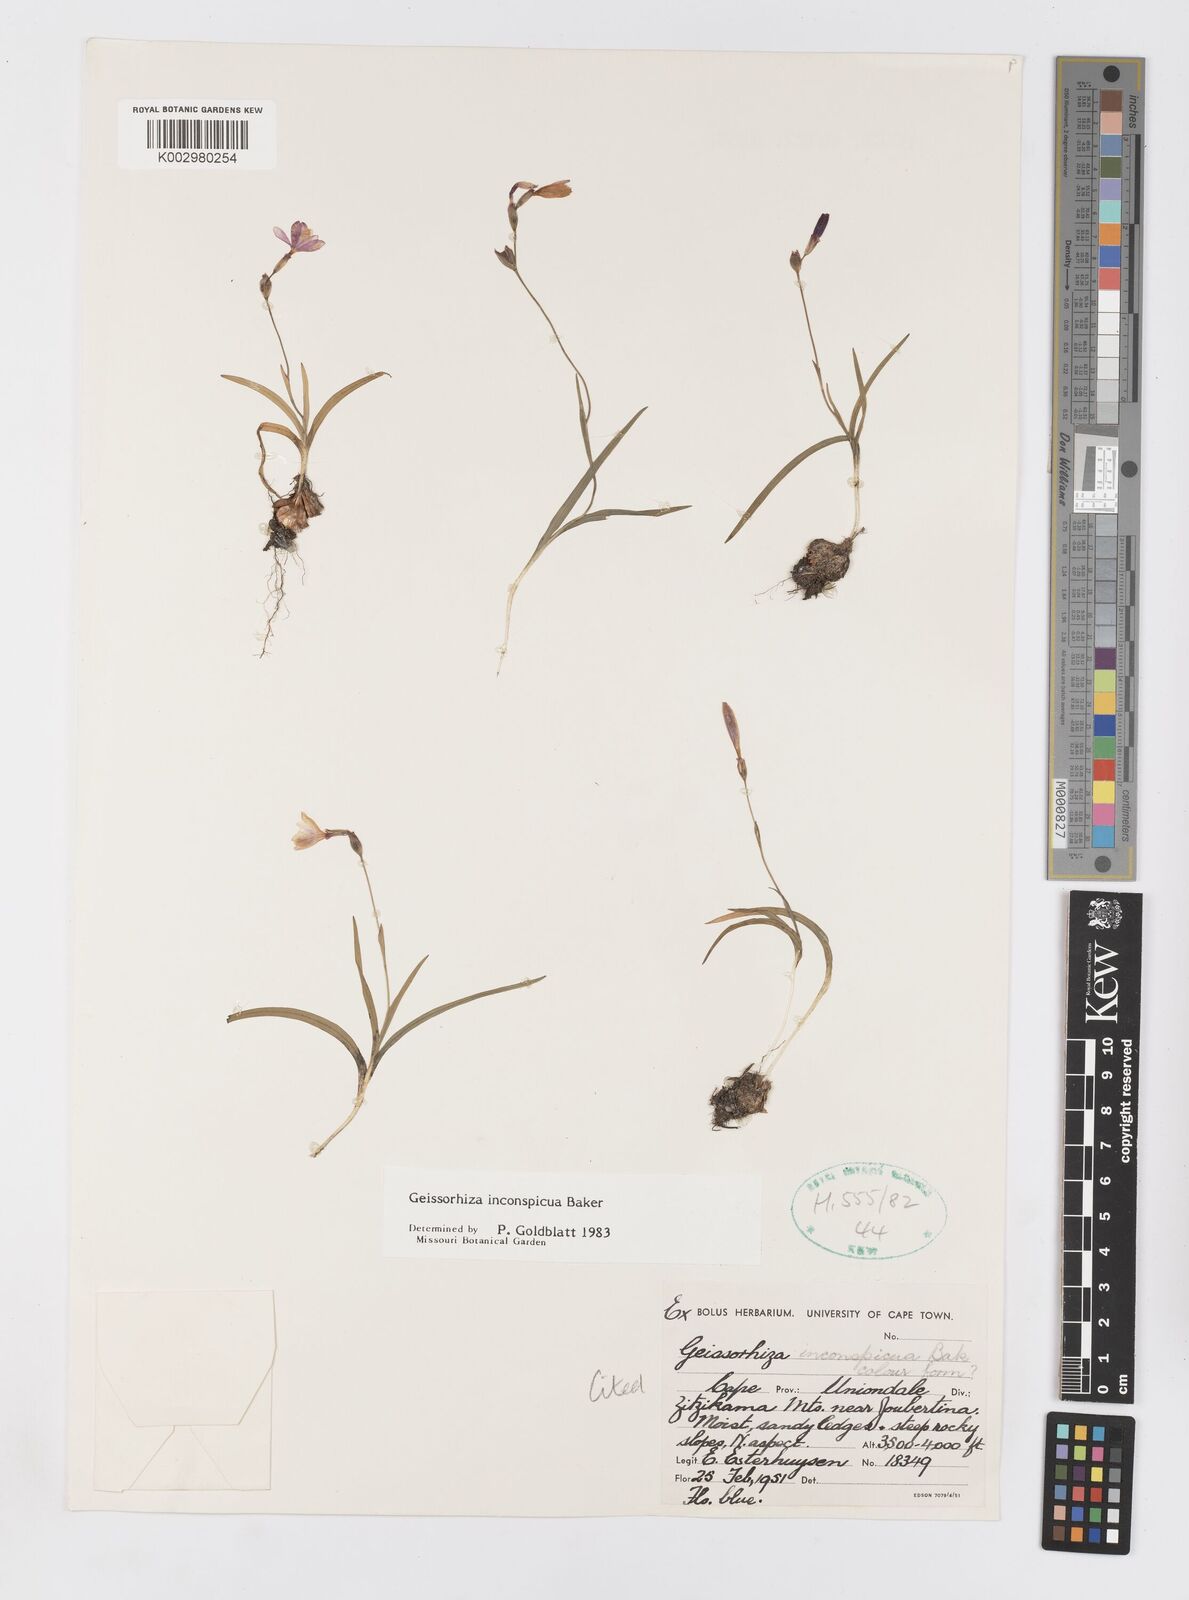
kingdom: Plantae
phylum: Tracheophyta
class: Liliopsida
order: Asparagales
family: Iridaceae
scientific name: Iridaceae
